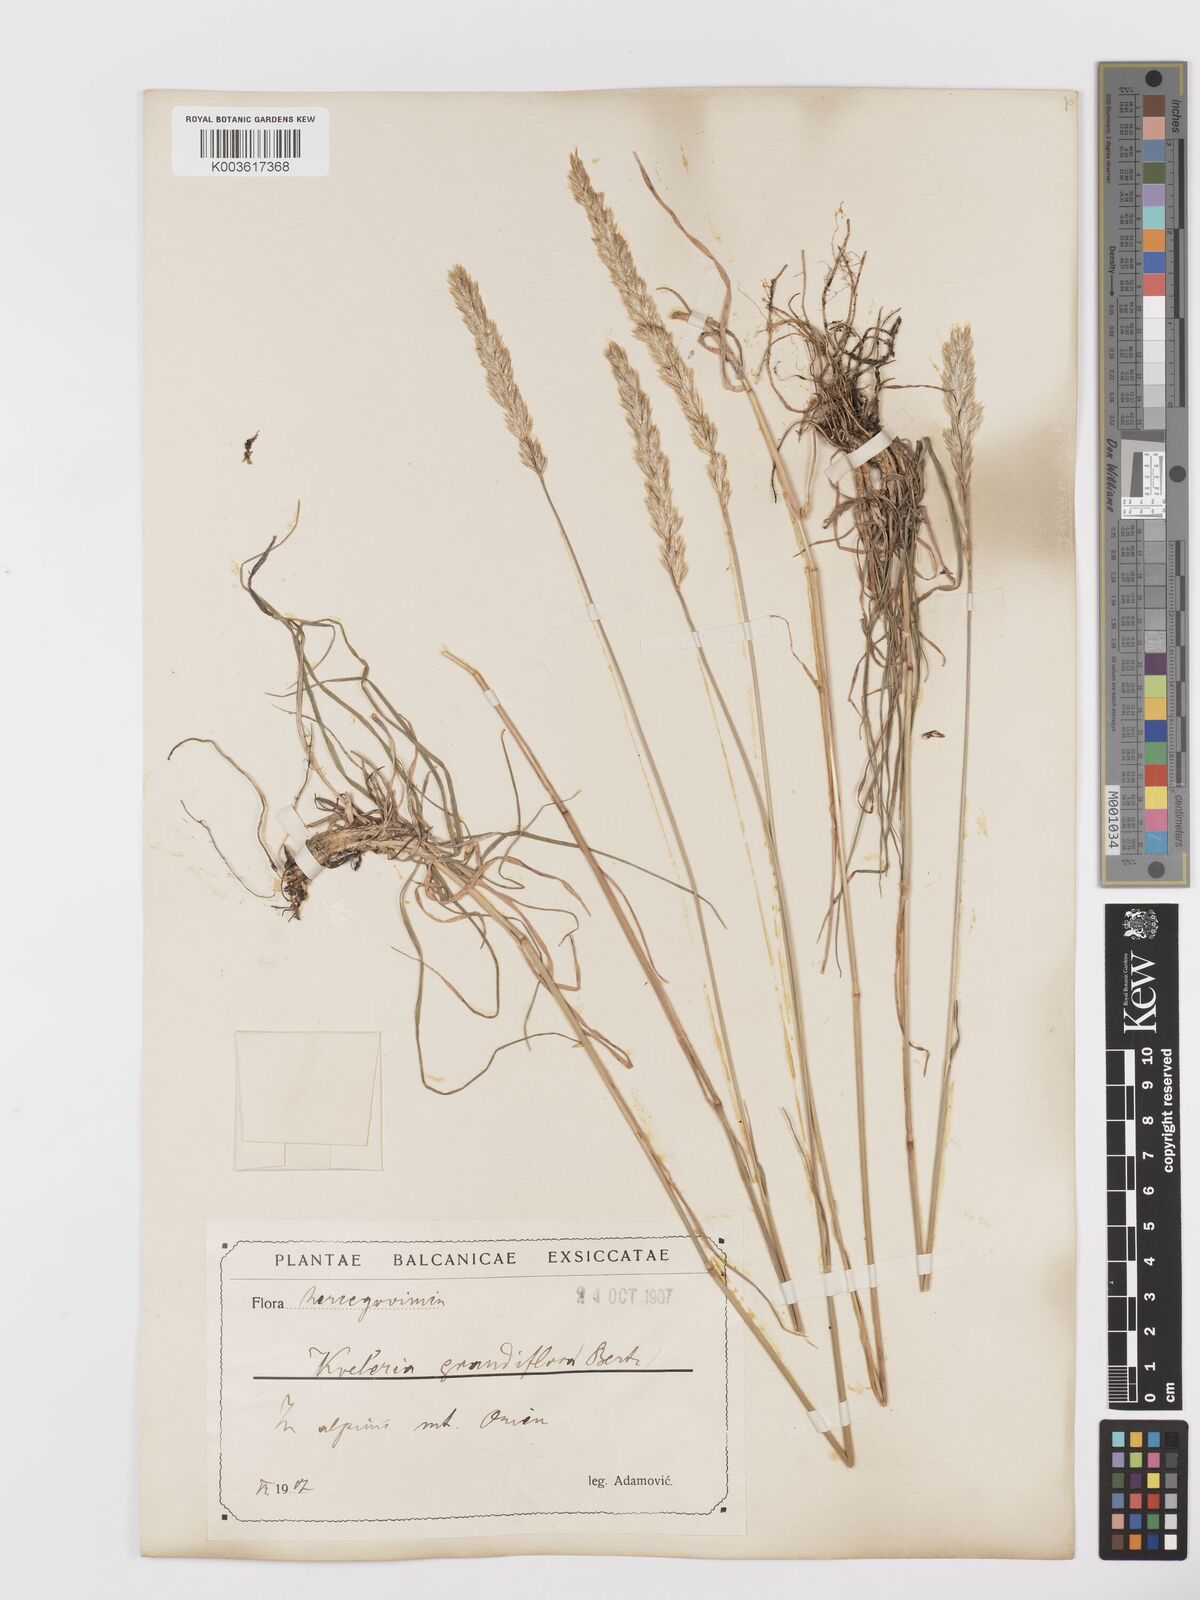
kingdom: Plantae
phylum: Tracheophyta
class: Liliopsida
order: Poales
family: Poaceae
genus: Koeleria
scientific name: Koeleria splendens
